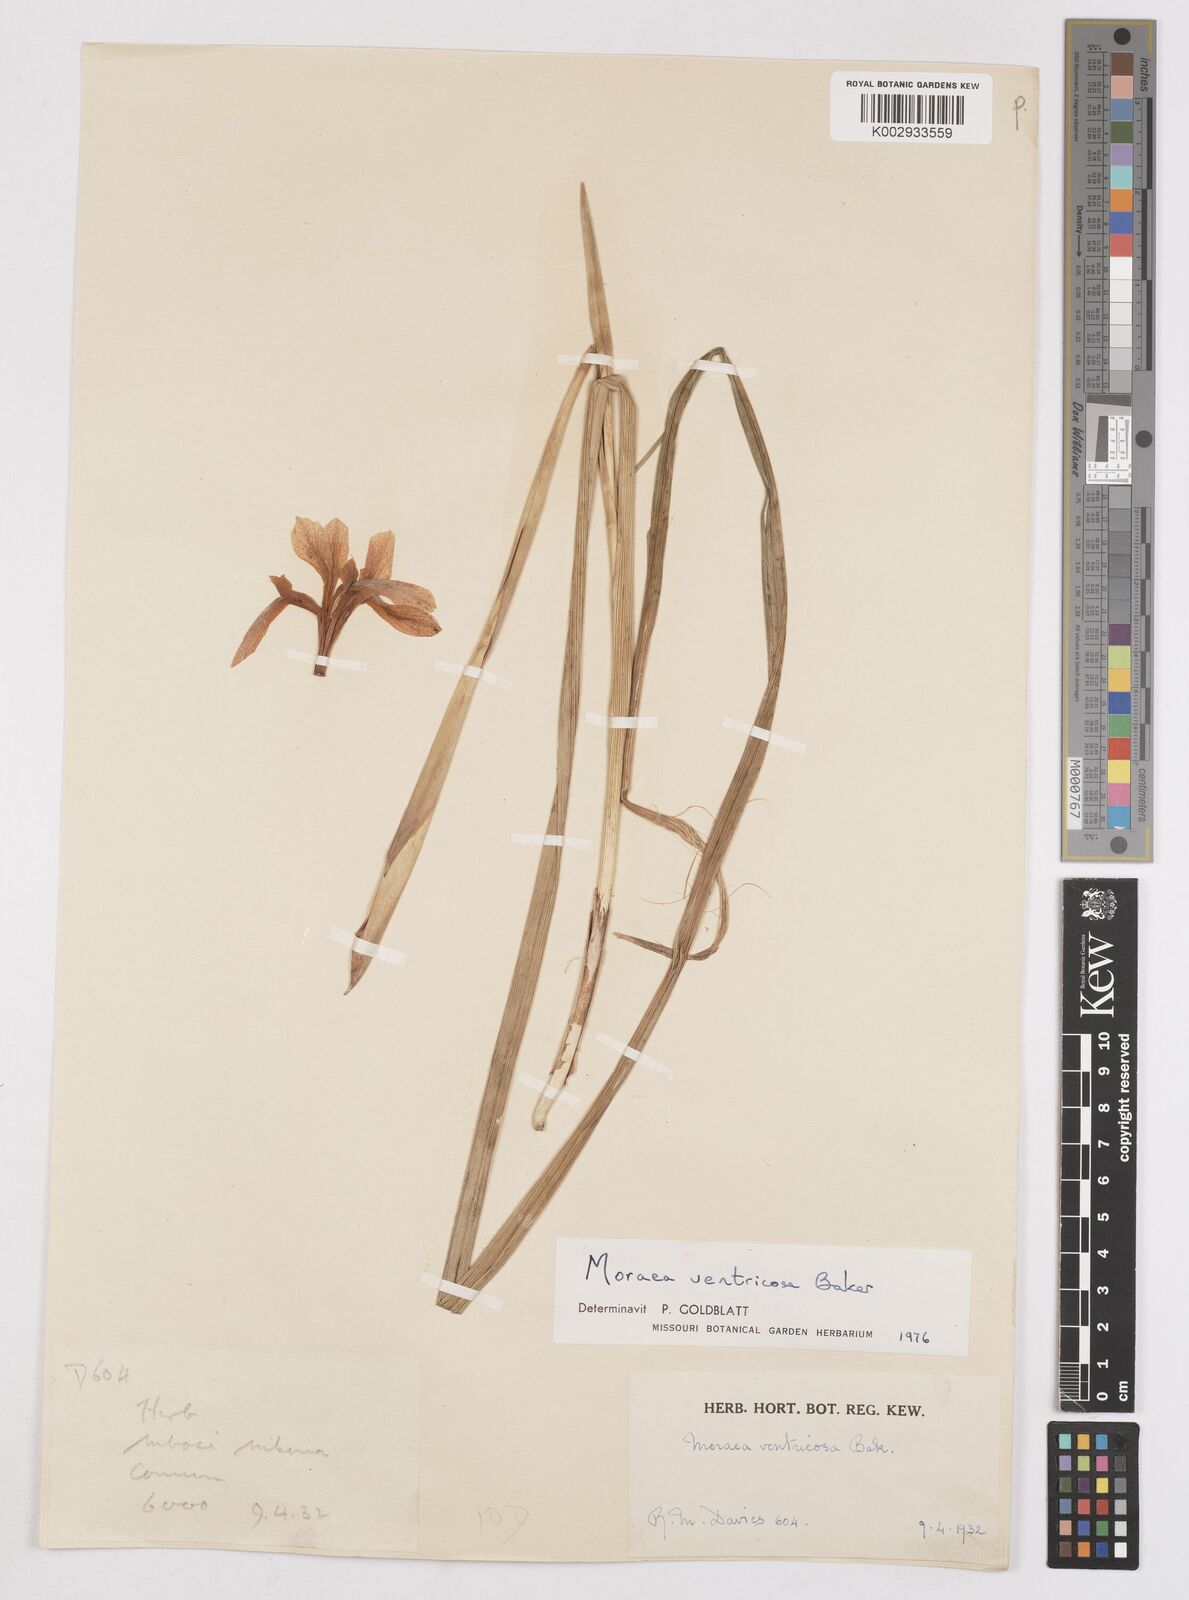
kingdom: Plantae
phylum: Tracheophyta
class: Liliopsida
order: Asparagales
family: Iridaceae
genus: Moraea
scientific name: Moraea ventricosa
